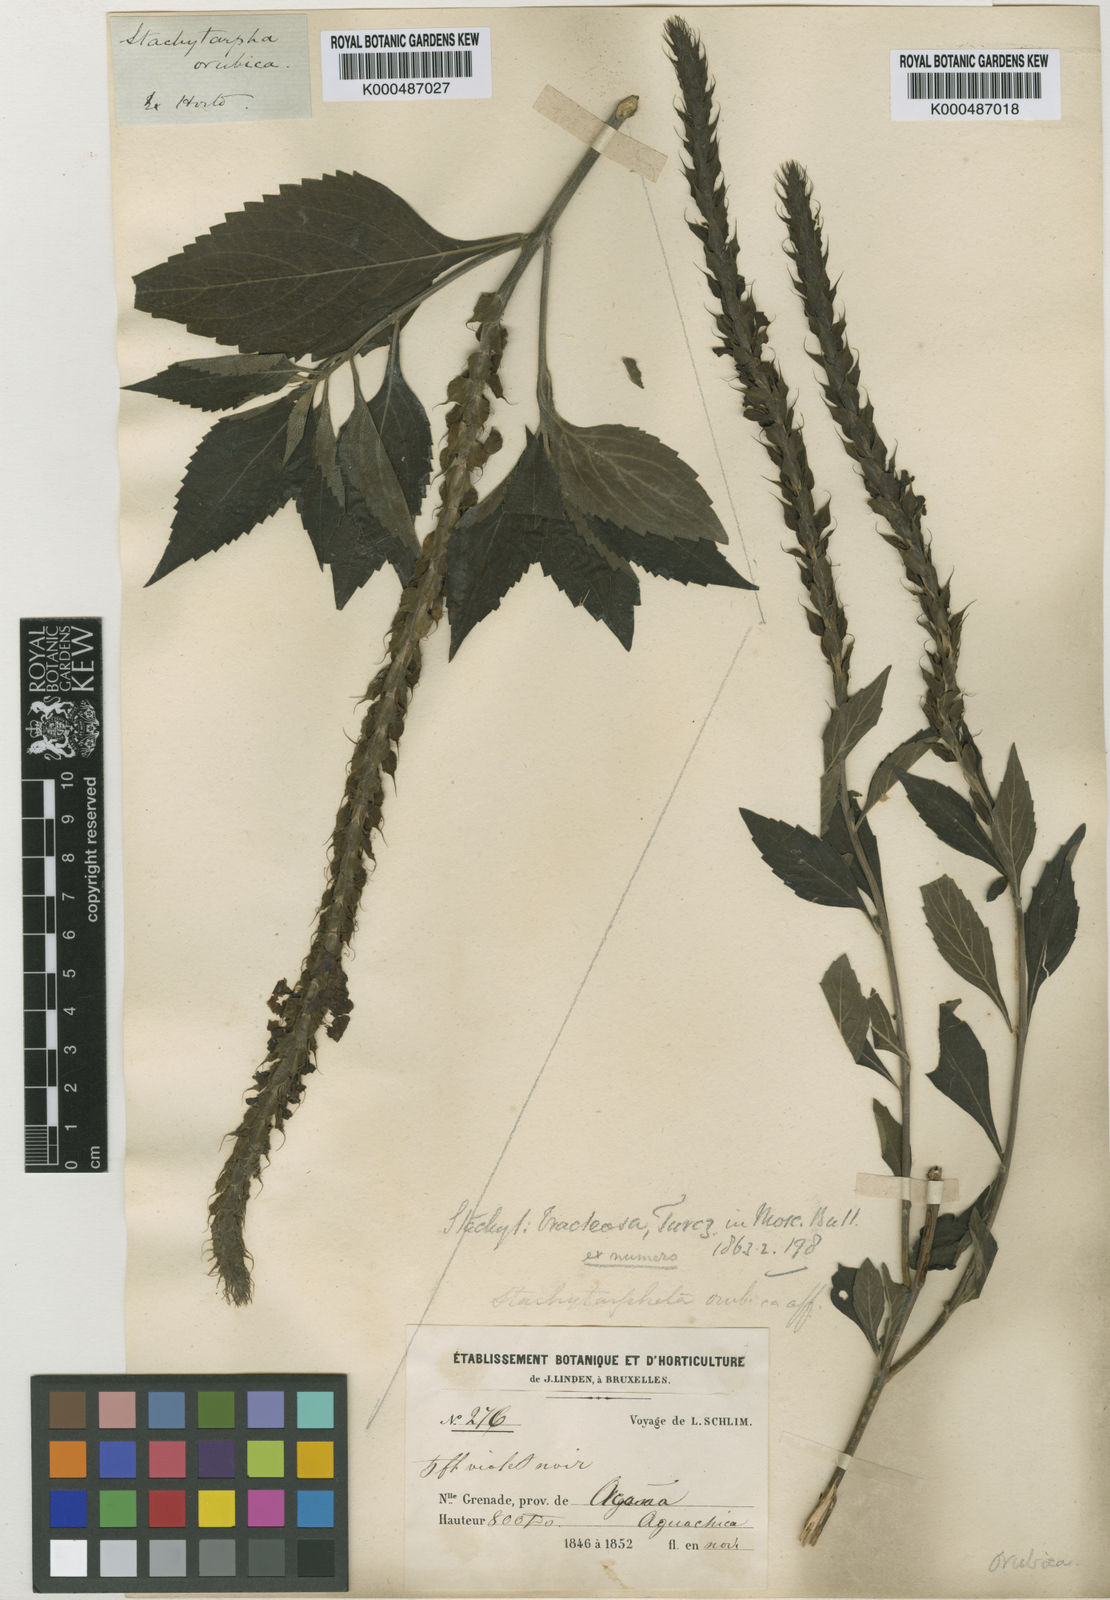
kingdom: Plantae
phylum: Tracheophyta
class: Magnoliopsida
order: Lamiales
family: Verbenaceae
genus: Stachytarpheta
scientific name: Stachytarpheta orubica
